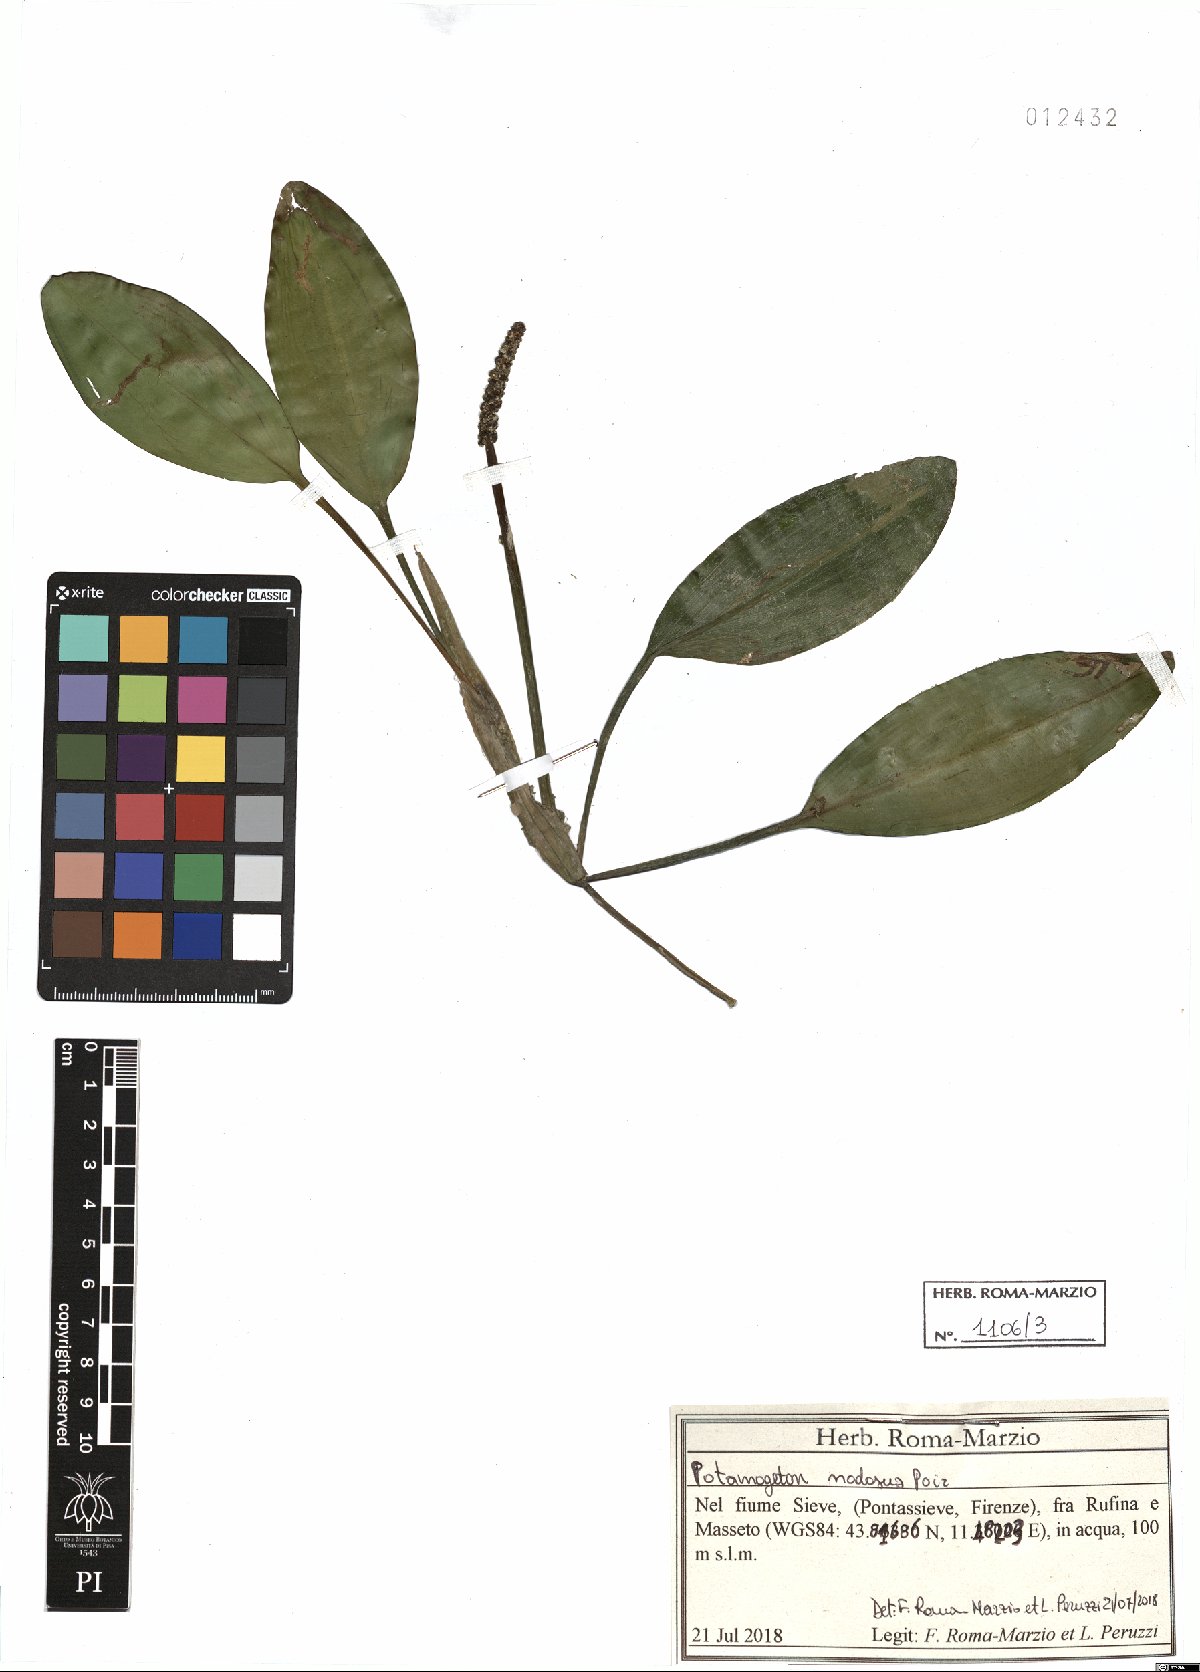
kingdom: Plantae
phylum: Tracheophyta
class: Liliopsida
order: Alismatales
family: Potamogetonaceae
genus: Potamogeton
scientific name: Potamogeton nodosus
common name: Loddon pondweed
